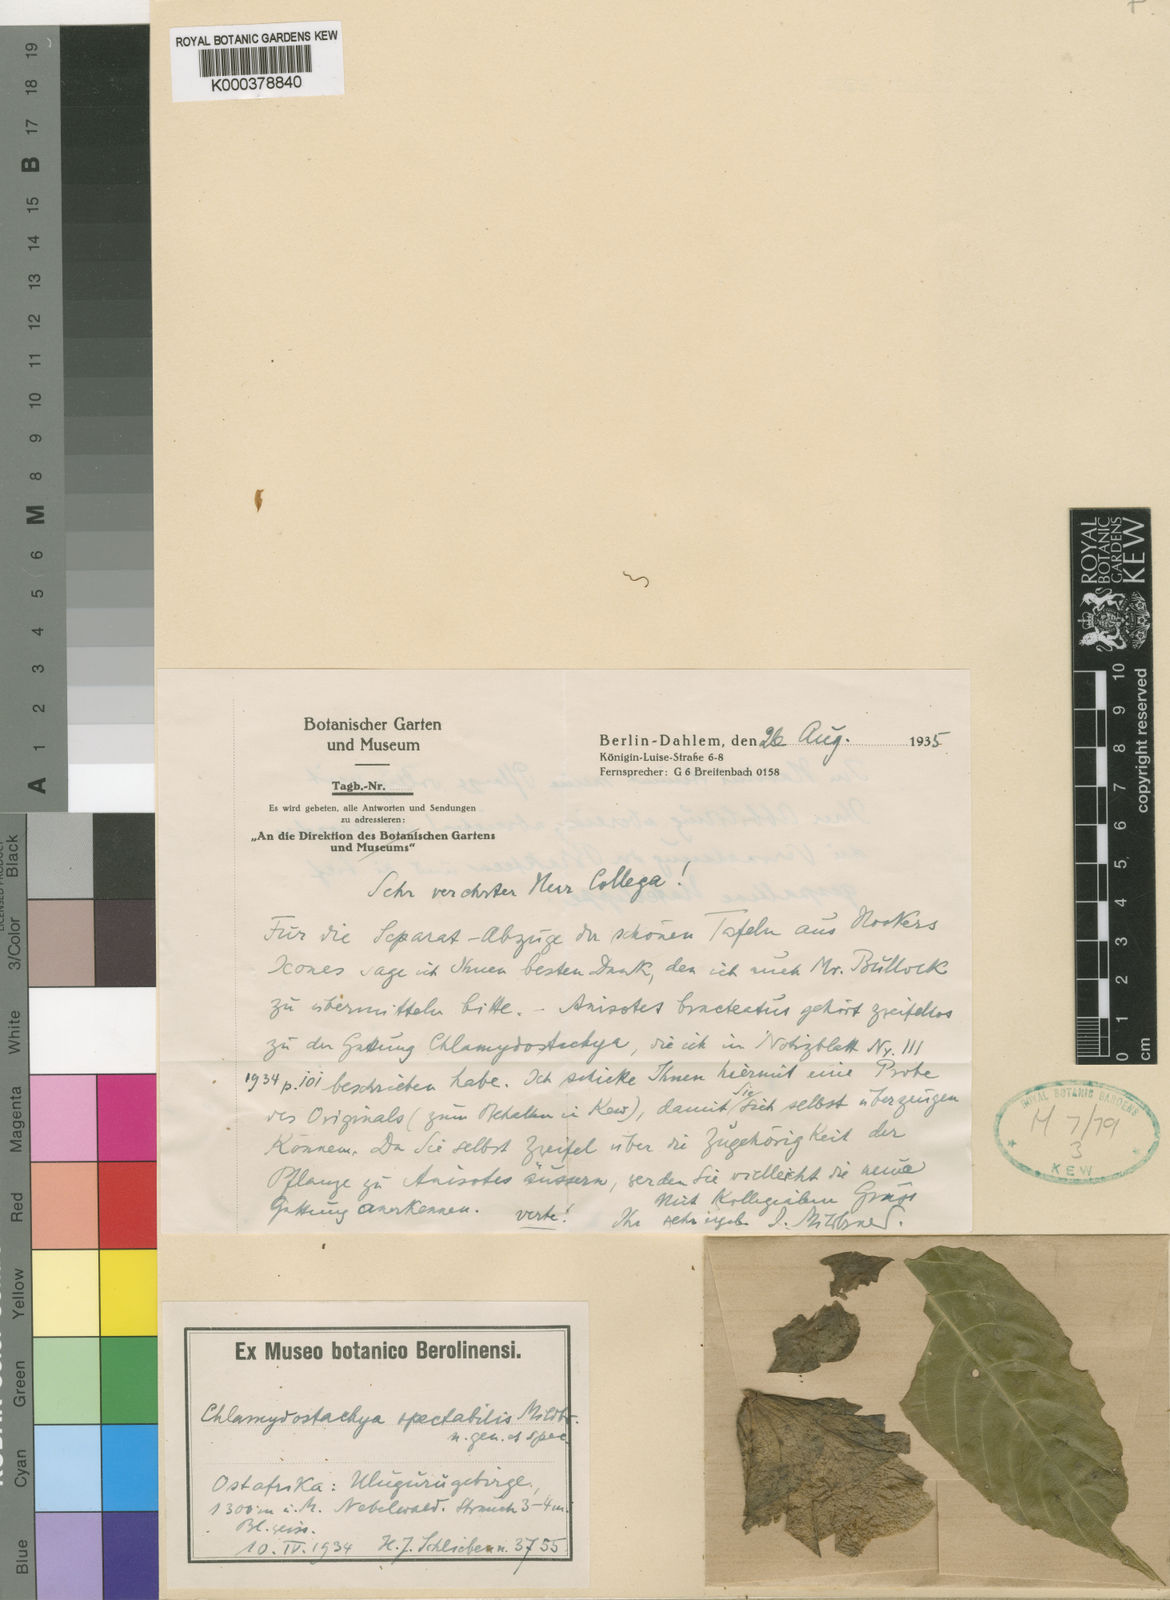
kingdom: Plantae
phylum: Tracheophyta
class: Magnoliopsida
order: Lamiales
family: Acanthaceae
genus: Anisotes
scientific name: Anisotes spectabilis
